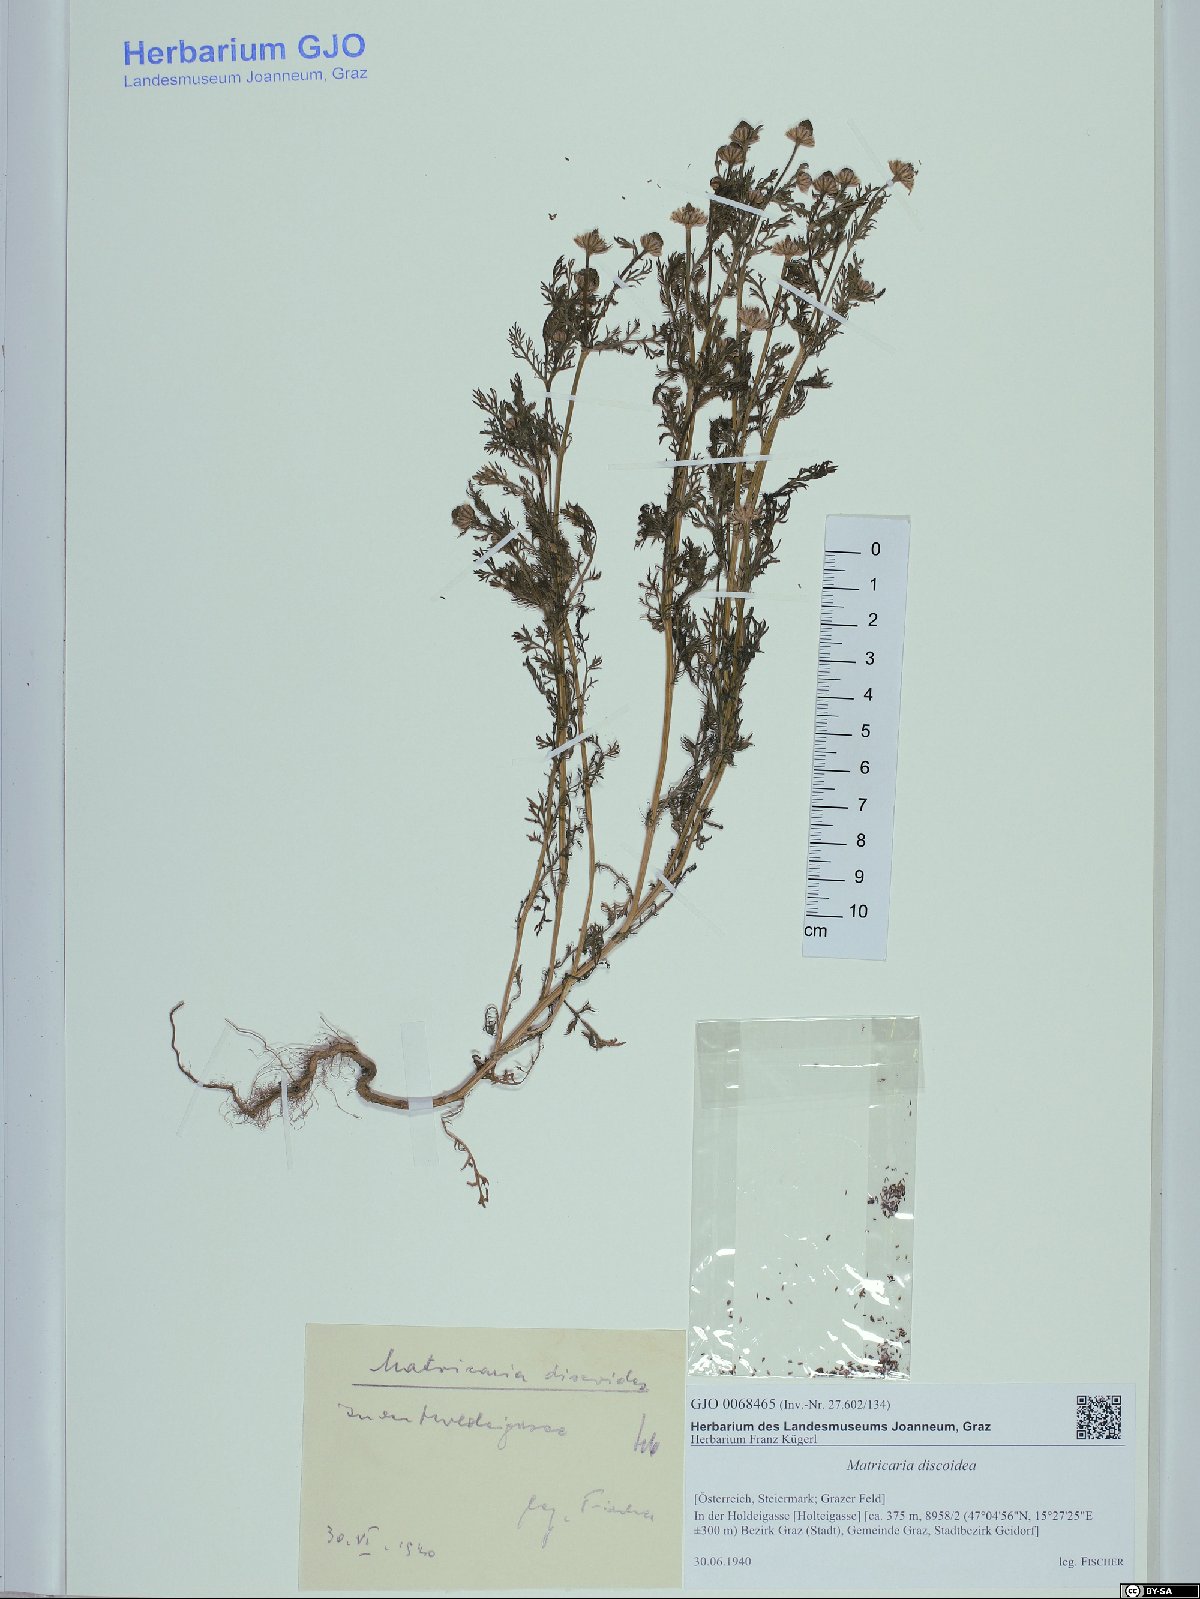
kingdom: Plantae
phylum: Tracheophyta
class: Magnoliopsida
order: Asterales
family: Asteraceae
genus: Matricaria
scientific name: Matricaria discoidea
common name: Disc mayweed
